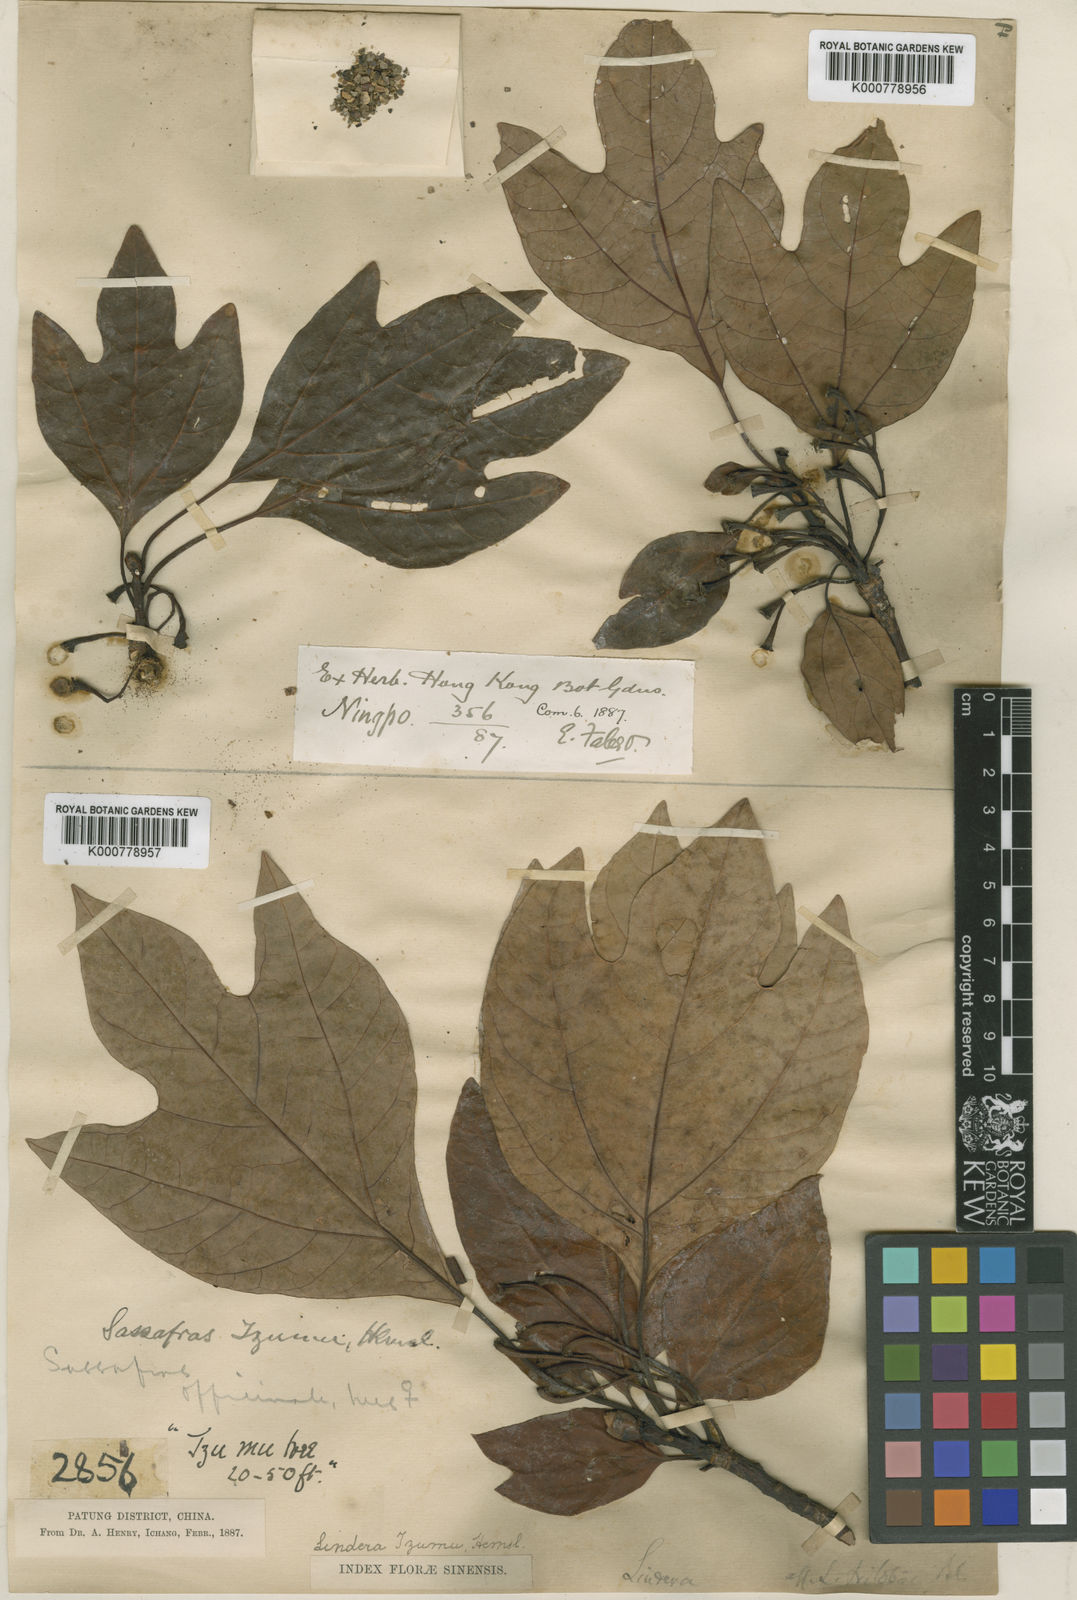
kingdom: Plantae
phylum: Tracheophyta
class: Magnoliopsida
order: Laurales
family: Lauraceae
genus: Sassafras
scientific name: Sassafras tzumu
